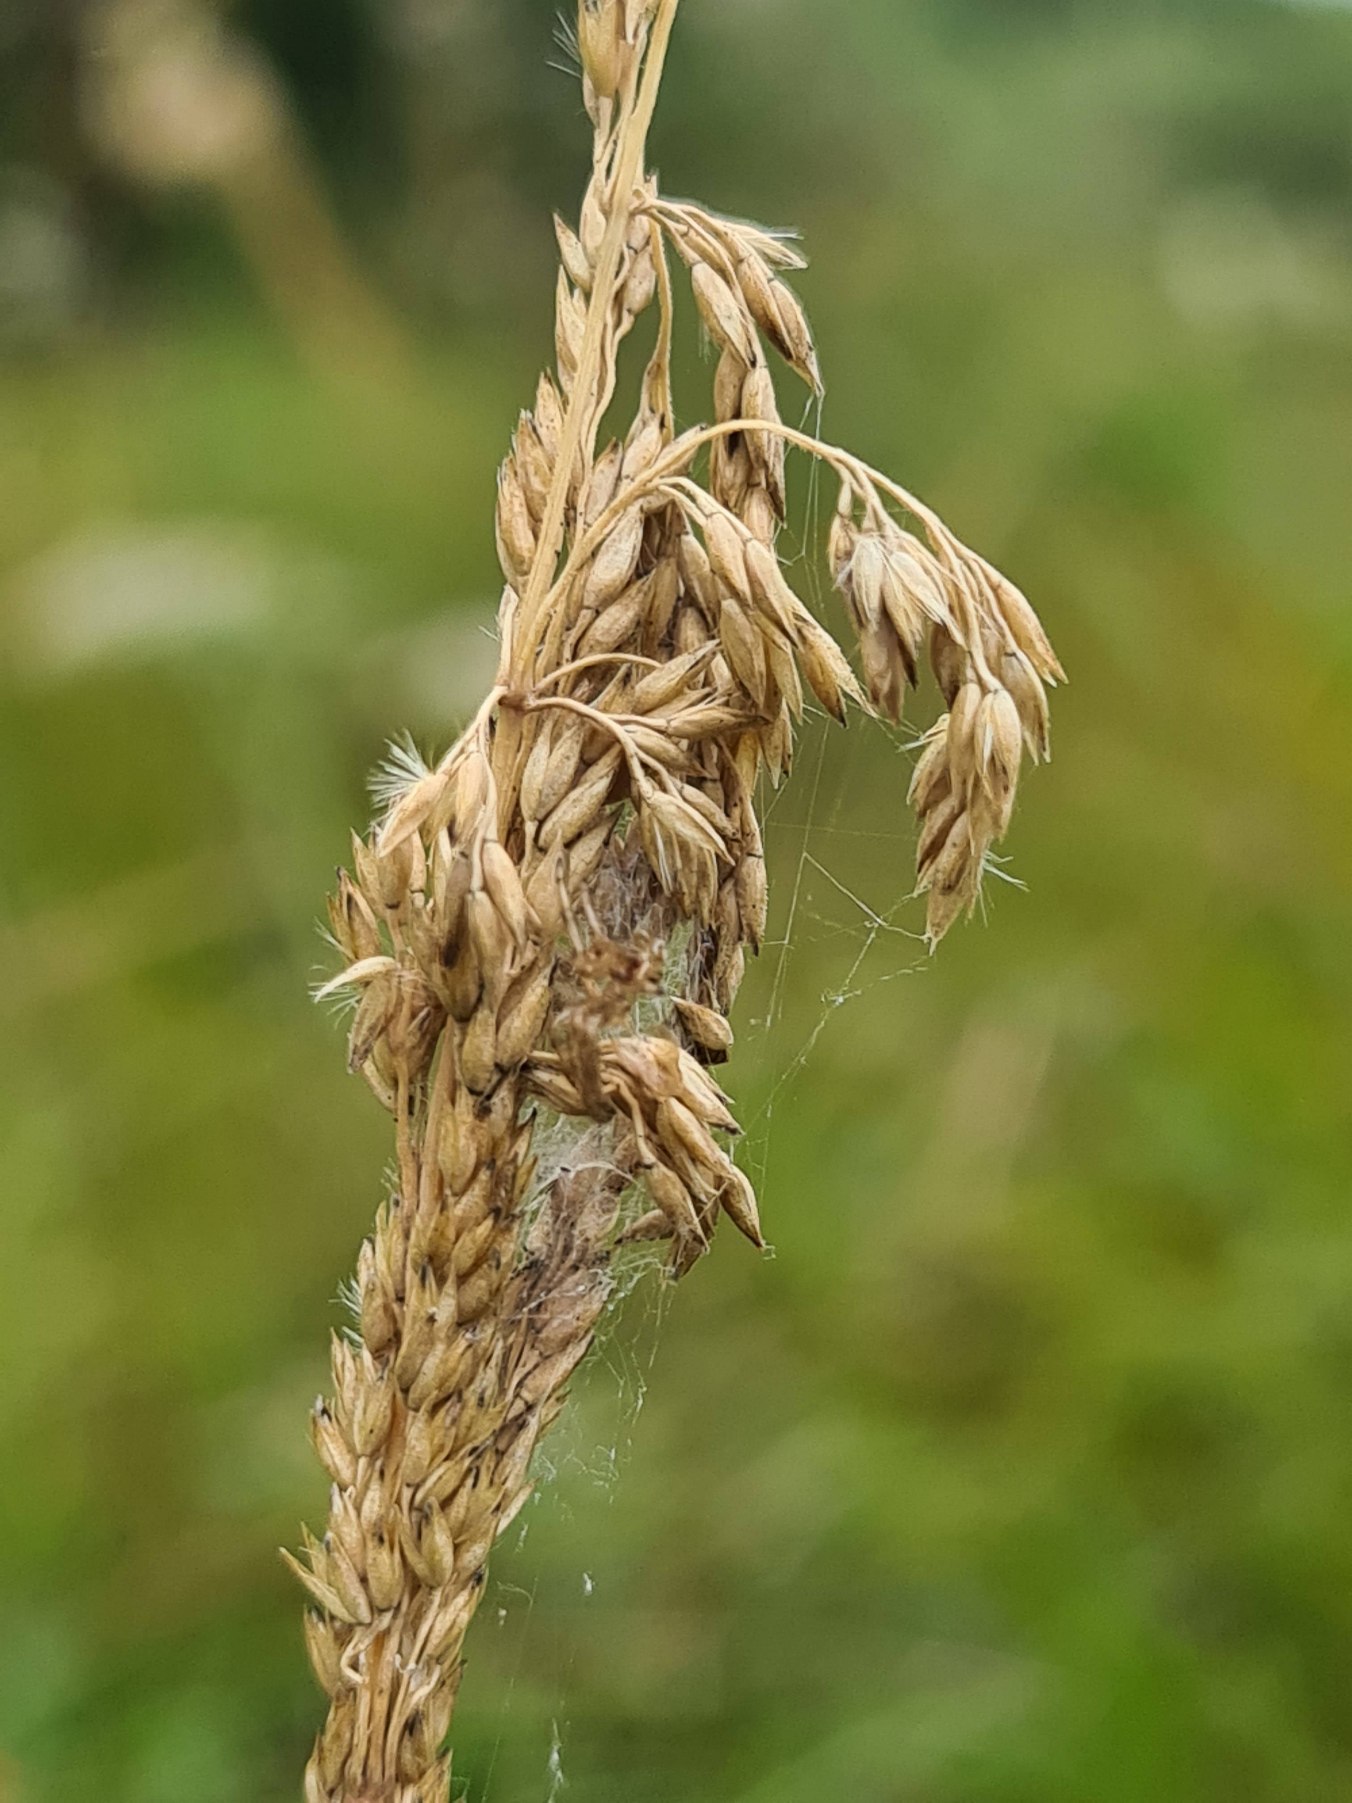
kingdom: Plantae
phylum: Tracheophyta
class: Liliopsida
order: Poales
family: Poaceae
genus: Achnatherum
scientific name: Achnatherum calamagrostis
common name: Stivtoppet rørhvene
